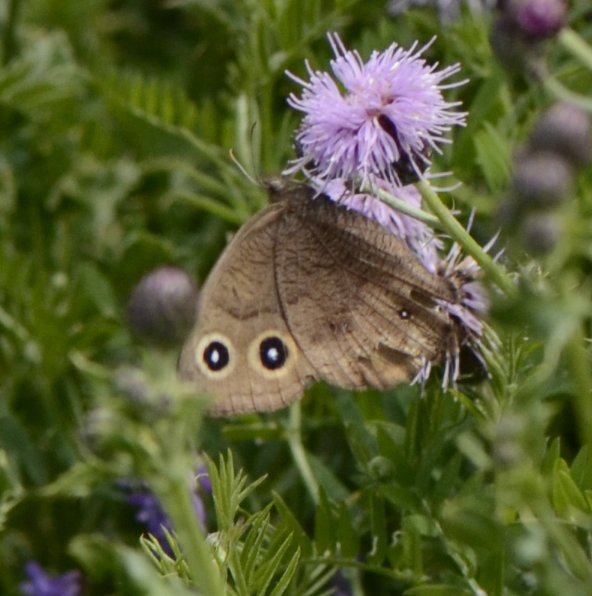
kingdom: Animalia
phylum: Arthropoda
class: Insecta
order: Lepidoptera
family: Nymphalidae
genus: Cercyonis
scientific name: Cercyonis pegala
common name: Common Wood-Nymph
